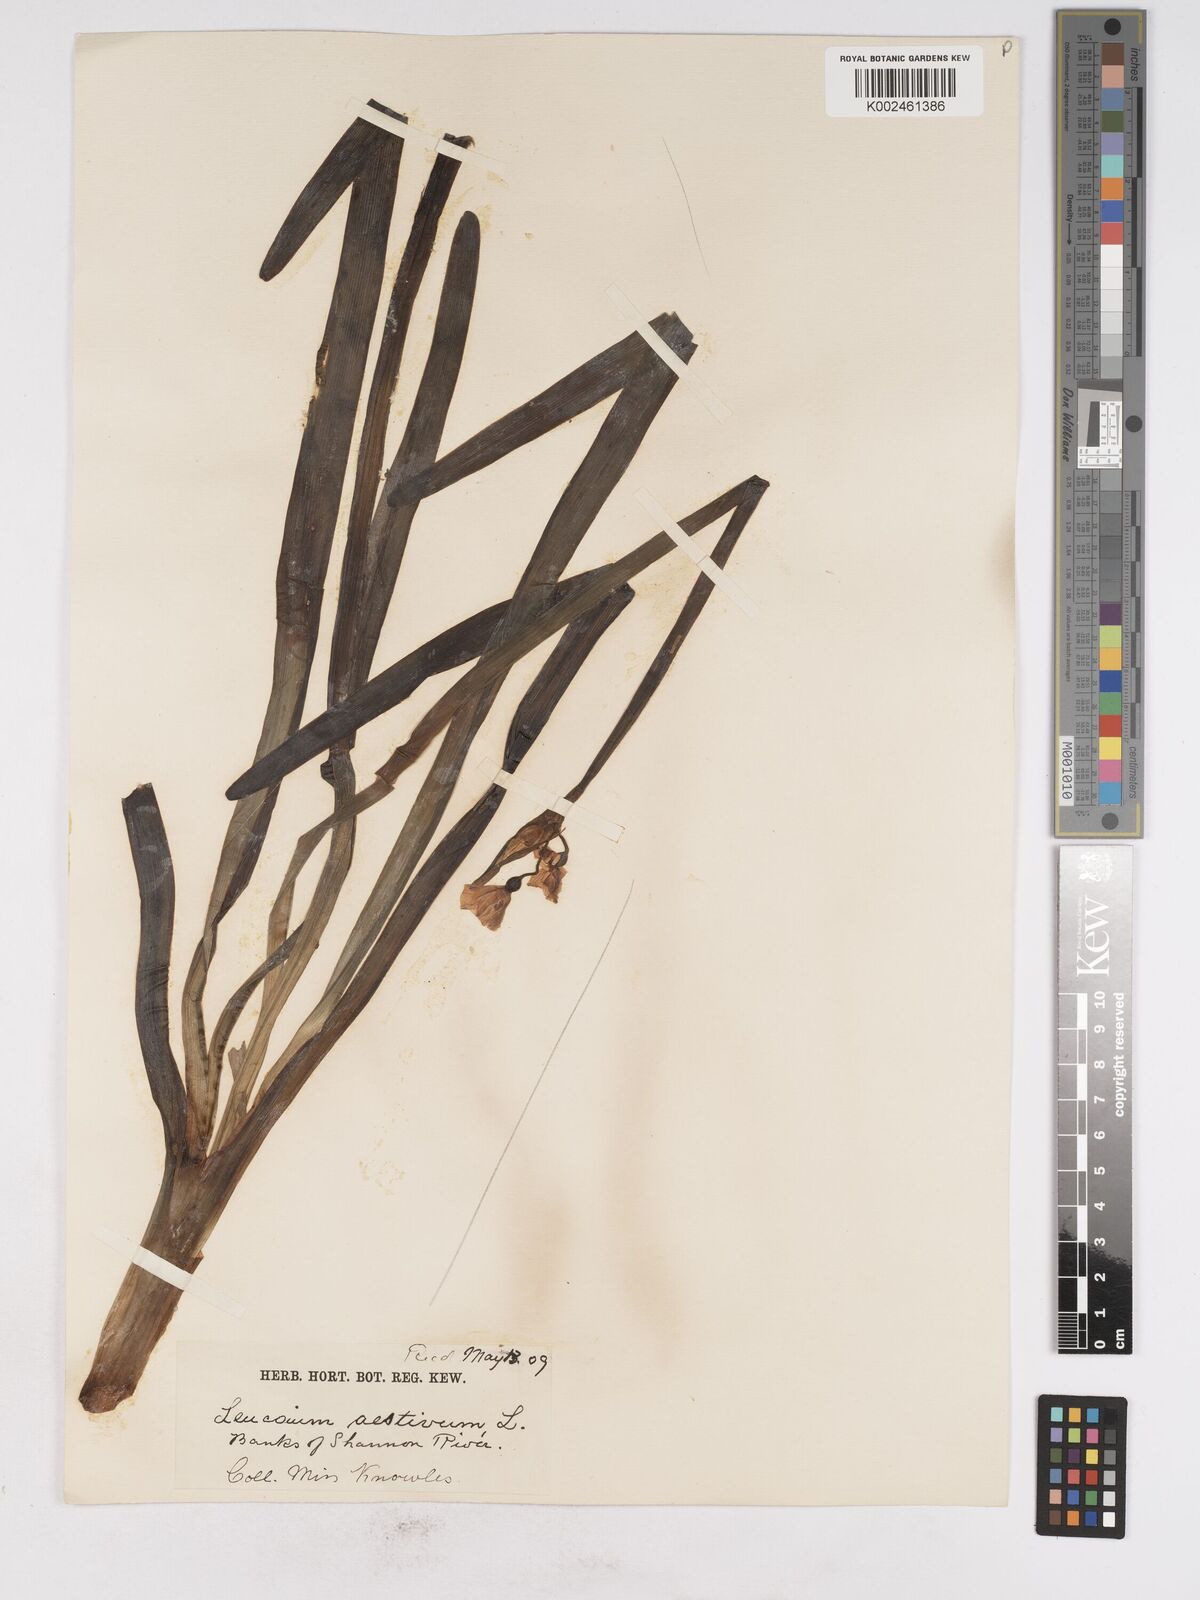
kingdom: Plantae
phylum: Tracheophyta
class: Liliopsida
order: Asparagales
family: Amaryllidaceae
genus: Leucojum
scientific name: Leucojum aestivum
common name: Summer snowflake
